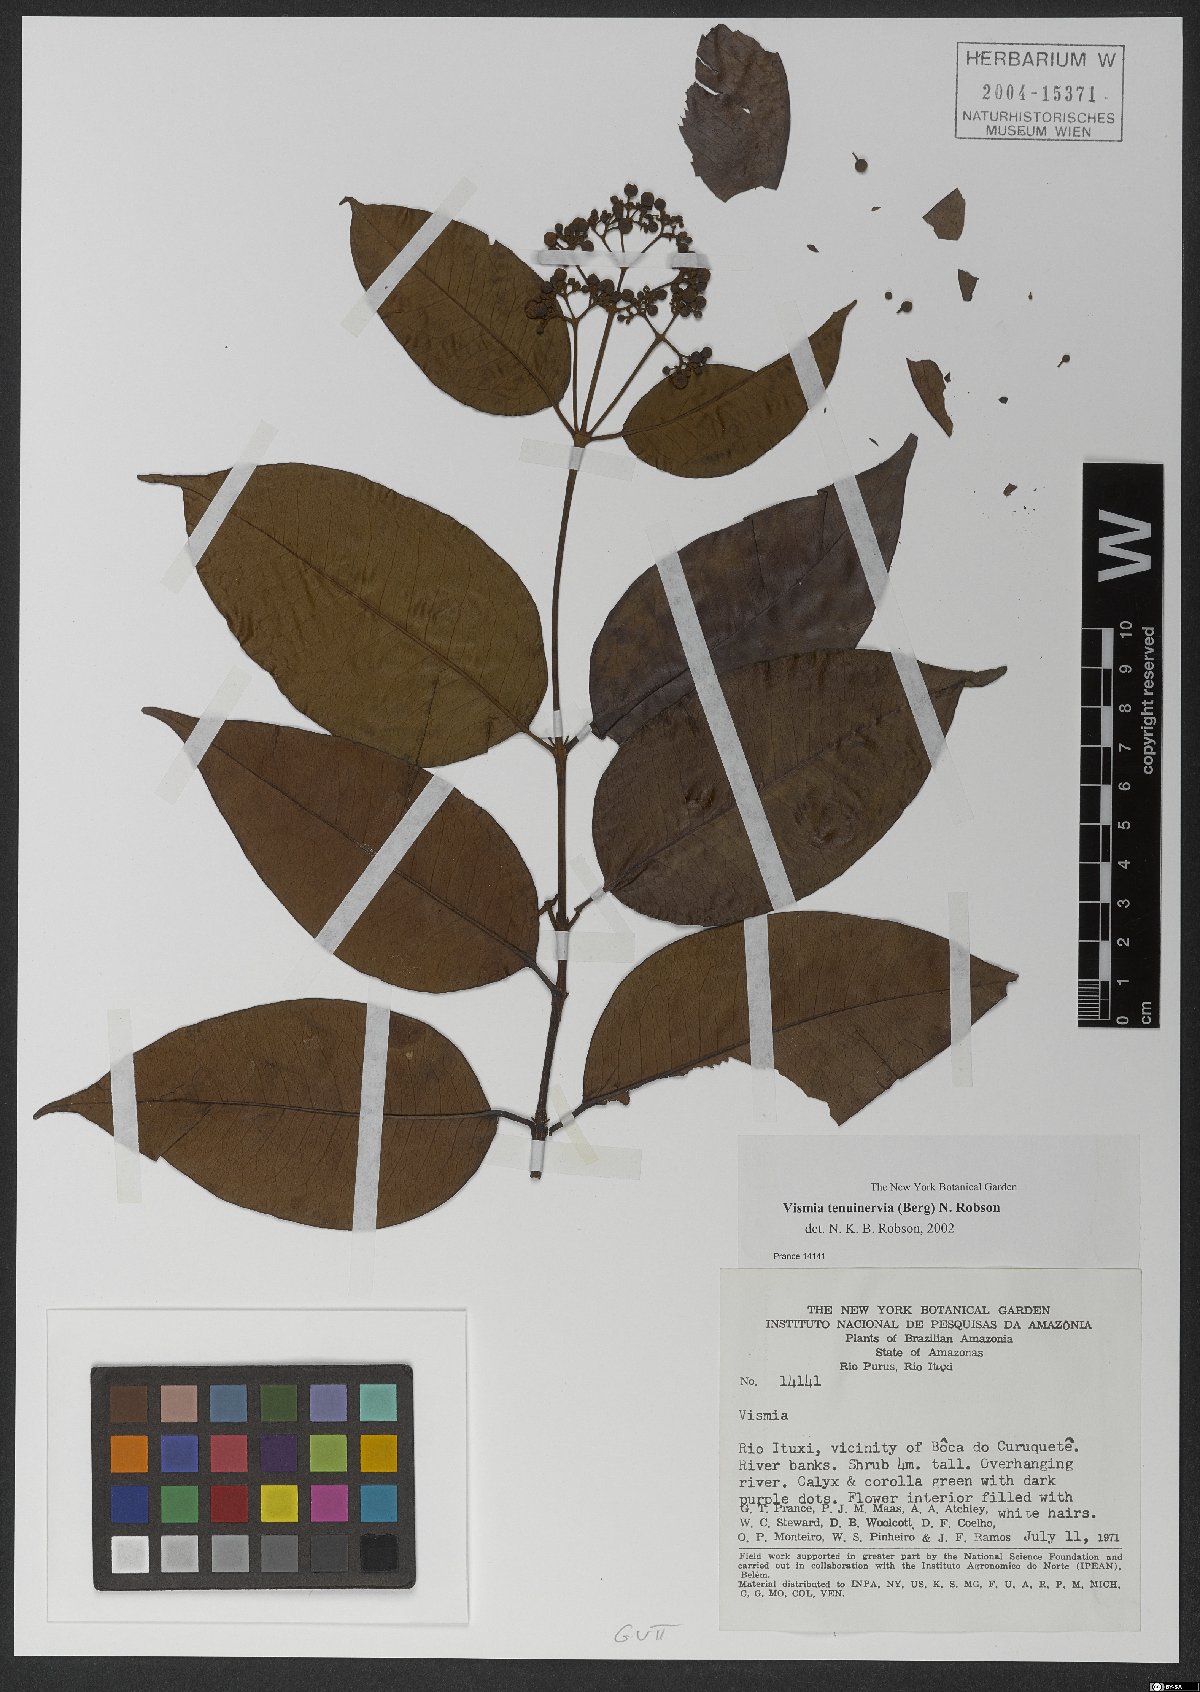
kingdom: Plantae
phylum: Tracheophyta
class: Magnoliopsida
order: Malpighiales
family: Hypericaceae
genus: Vismia
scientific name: Vismia cayennensis
